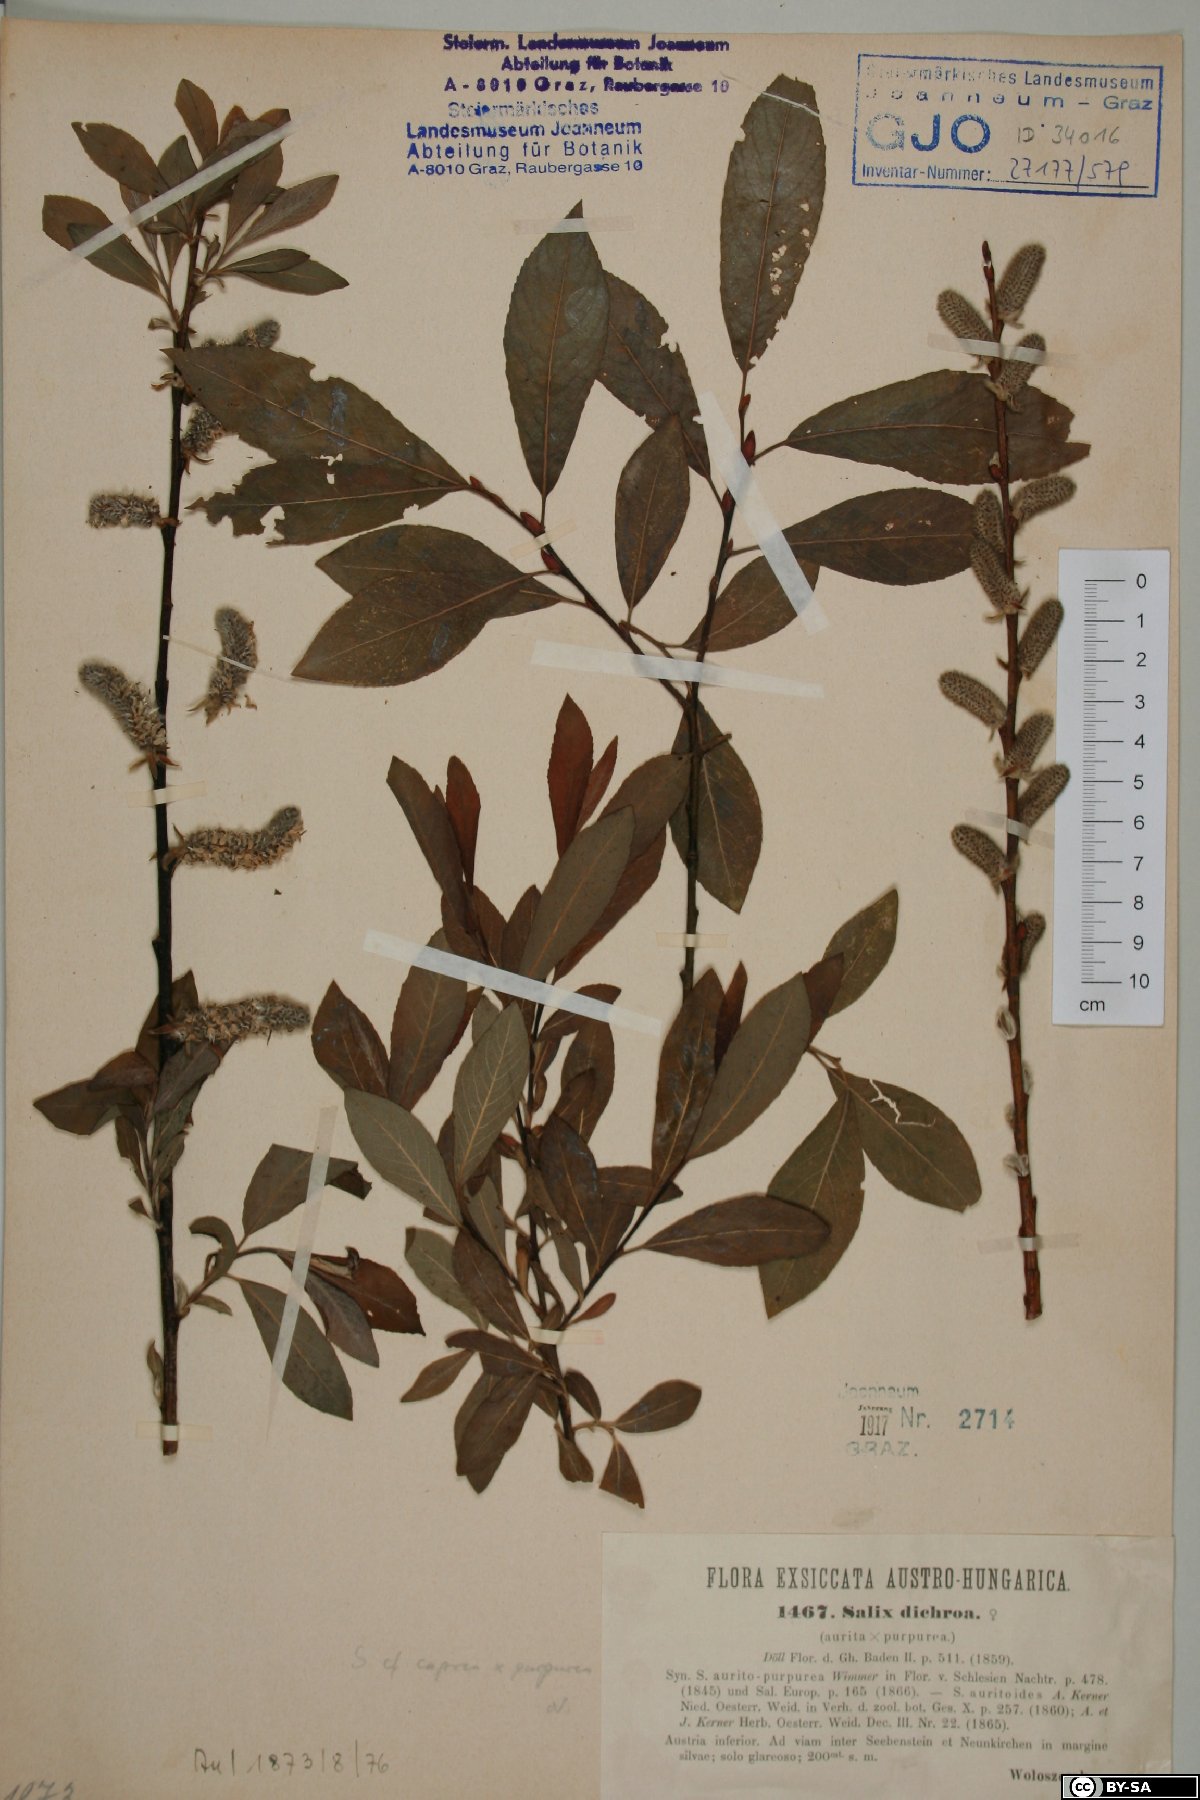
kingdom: Plantae
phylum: Tracheophyta
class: Magnoliopsida
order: Malpighiales
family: Salicaceae
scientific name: Salicaceae
